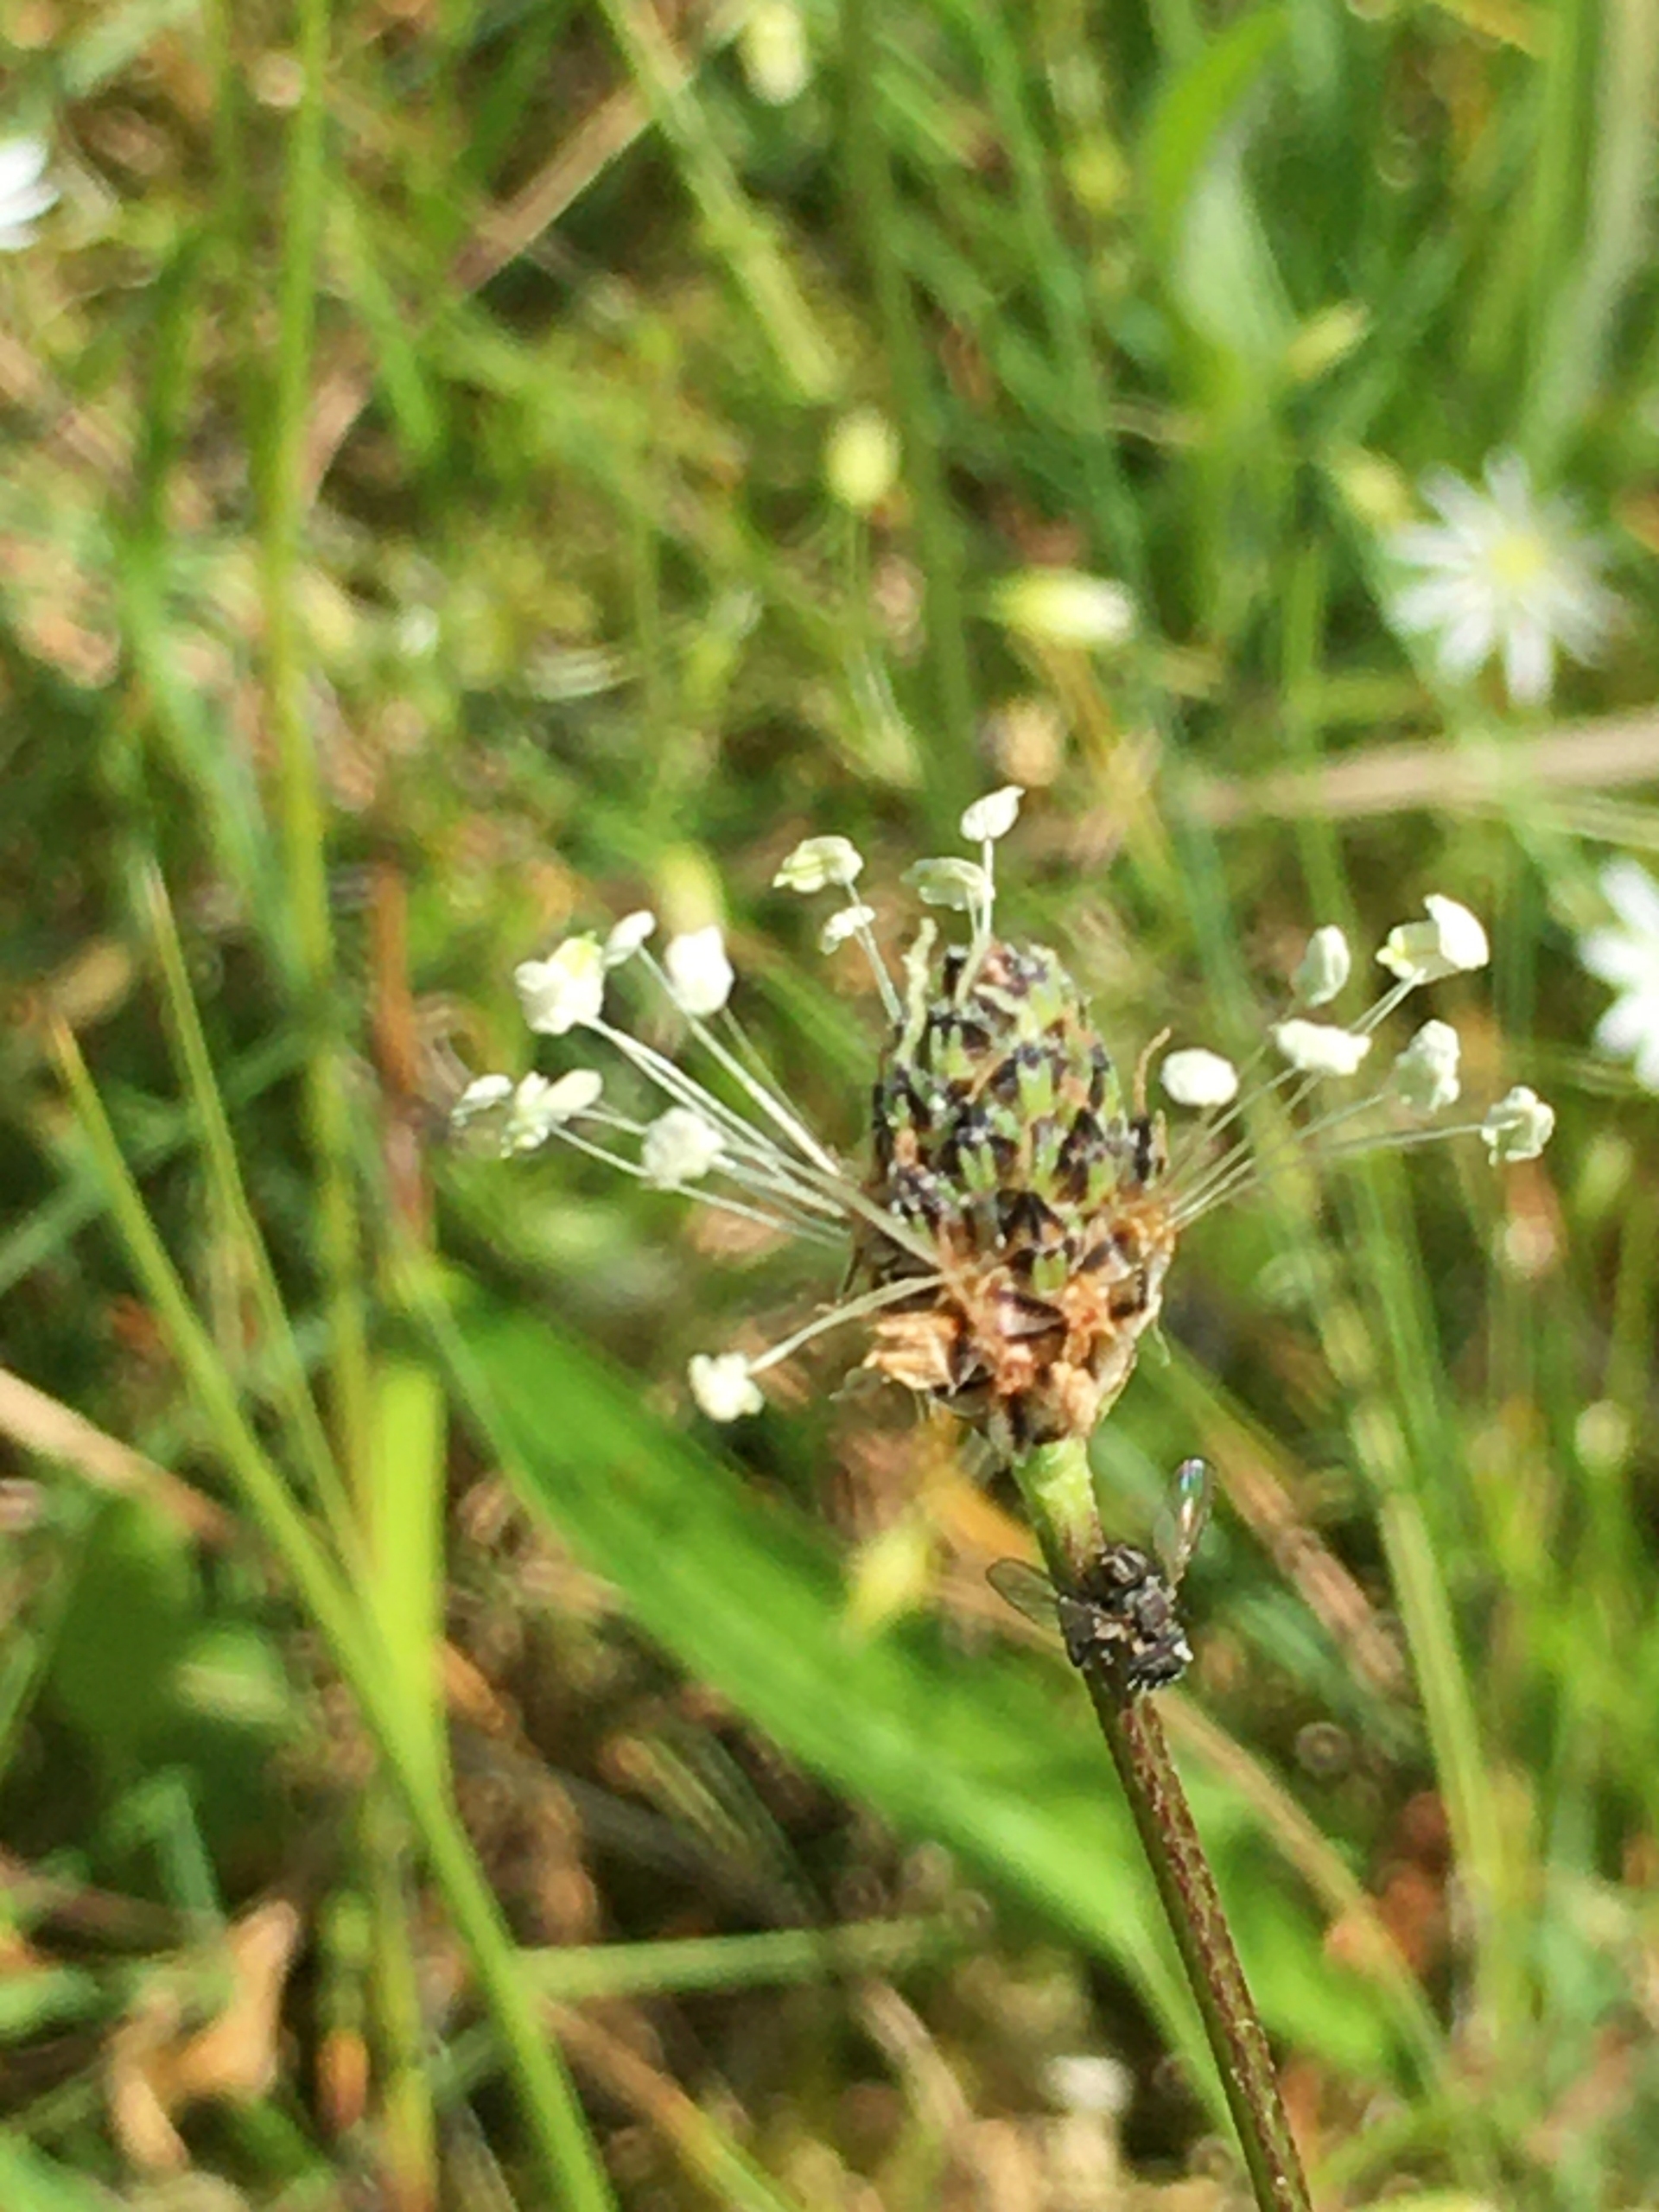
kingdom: Plantae
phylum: Tracheophyta
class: Magnoliopsida
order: Lamiales
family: Plantaginaceae
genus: Plantago
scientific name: Plantago lanceolata
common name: Lancet-vejbred
